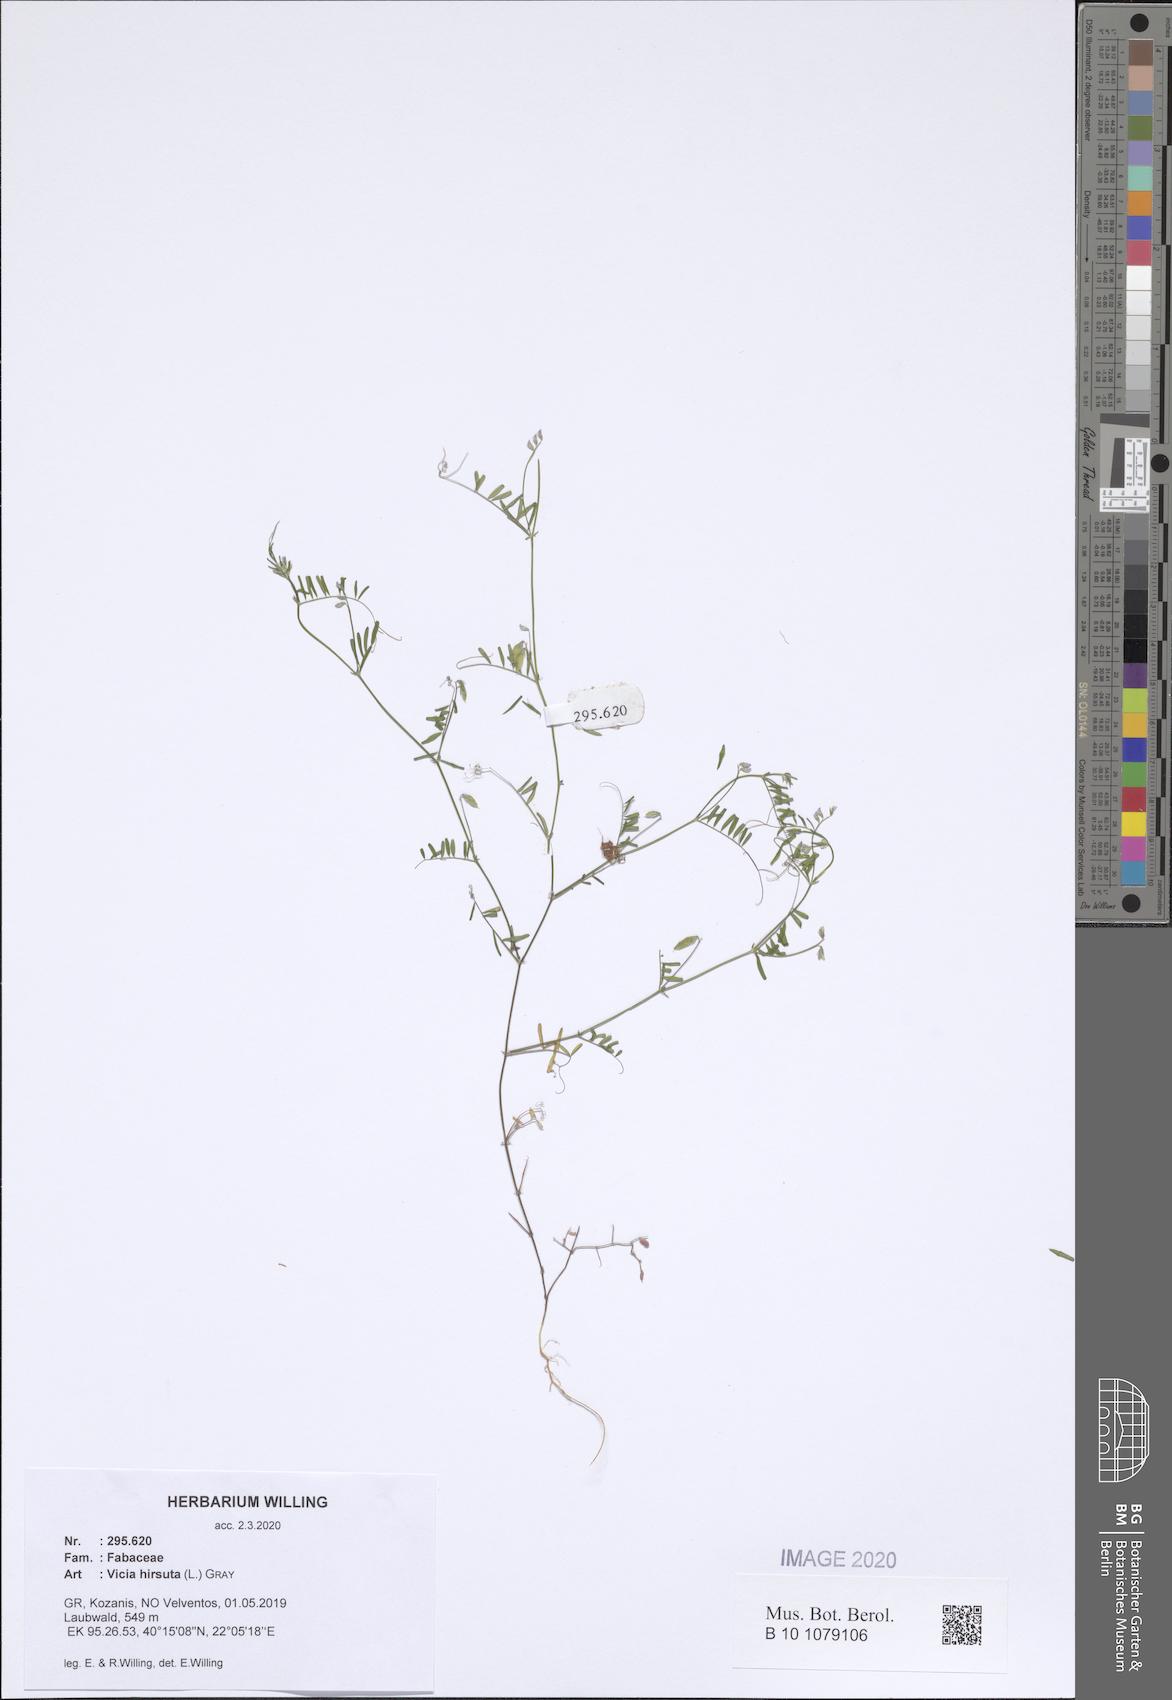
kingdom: Plantae
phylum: Tracheophyta
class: Magnoliopsida
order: Fabales
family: Fabaceae
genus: Vicia
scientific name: Vicia hirsuta
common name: Tiny vetch
